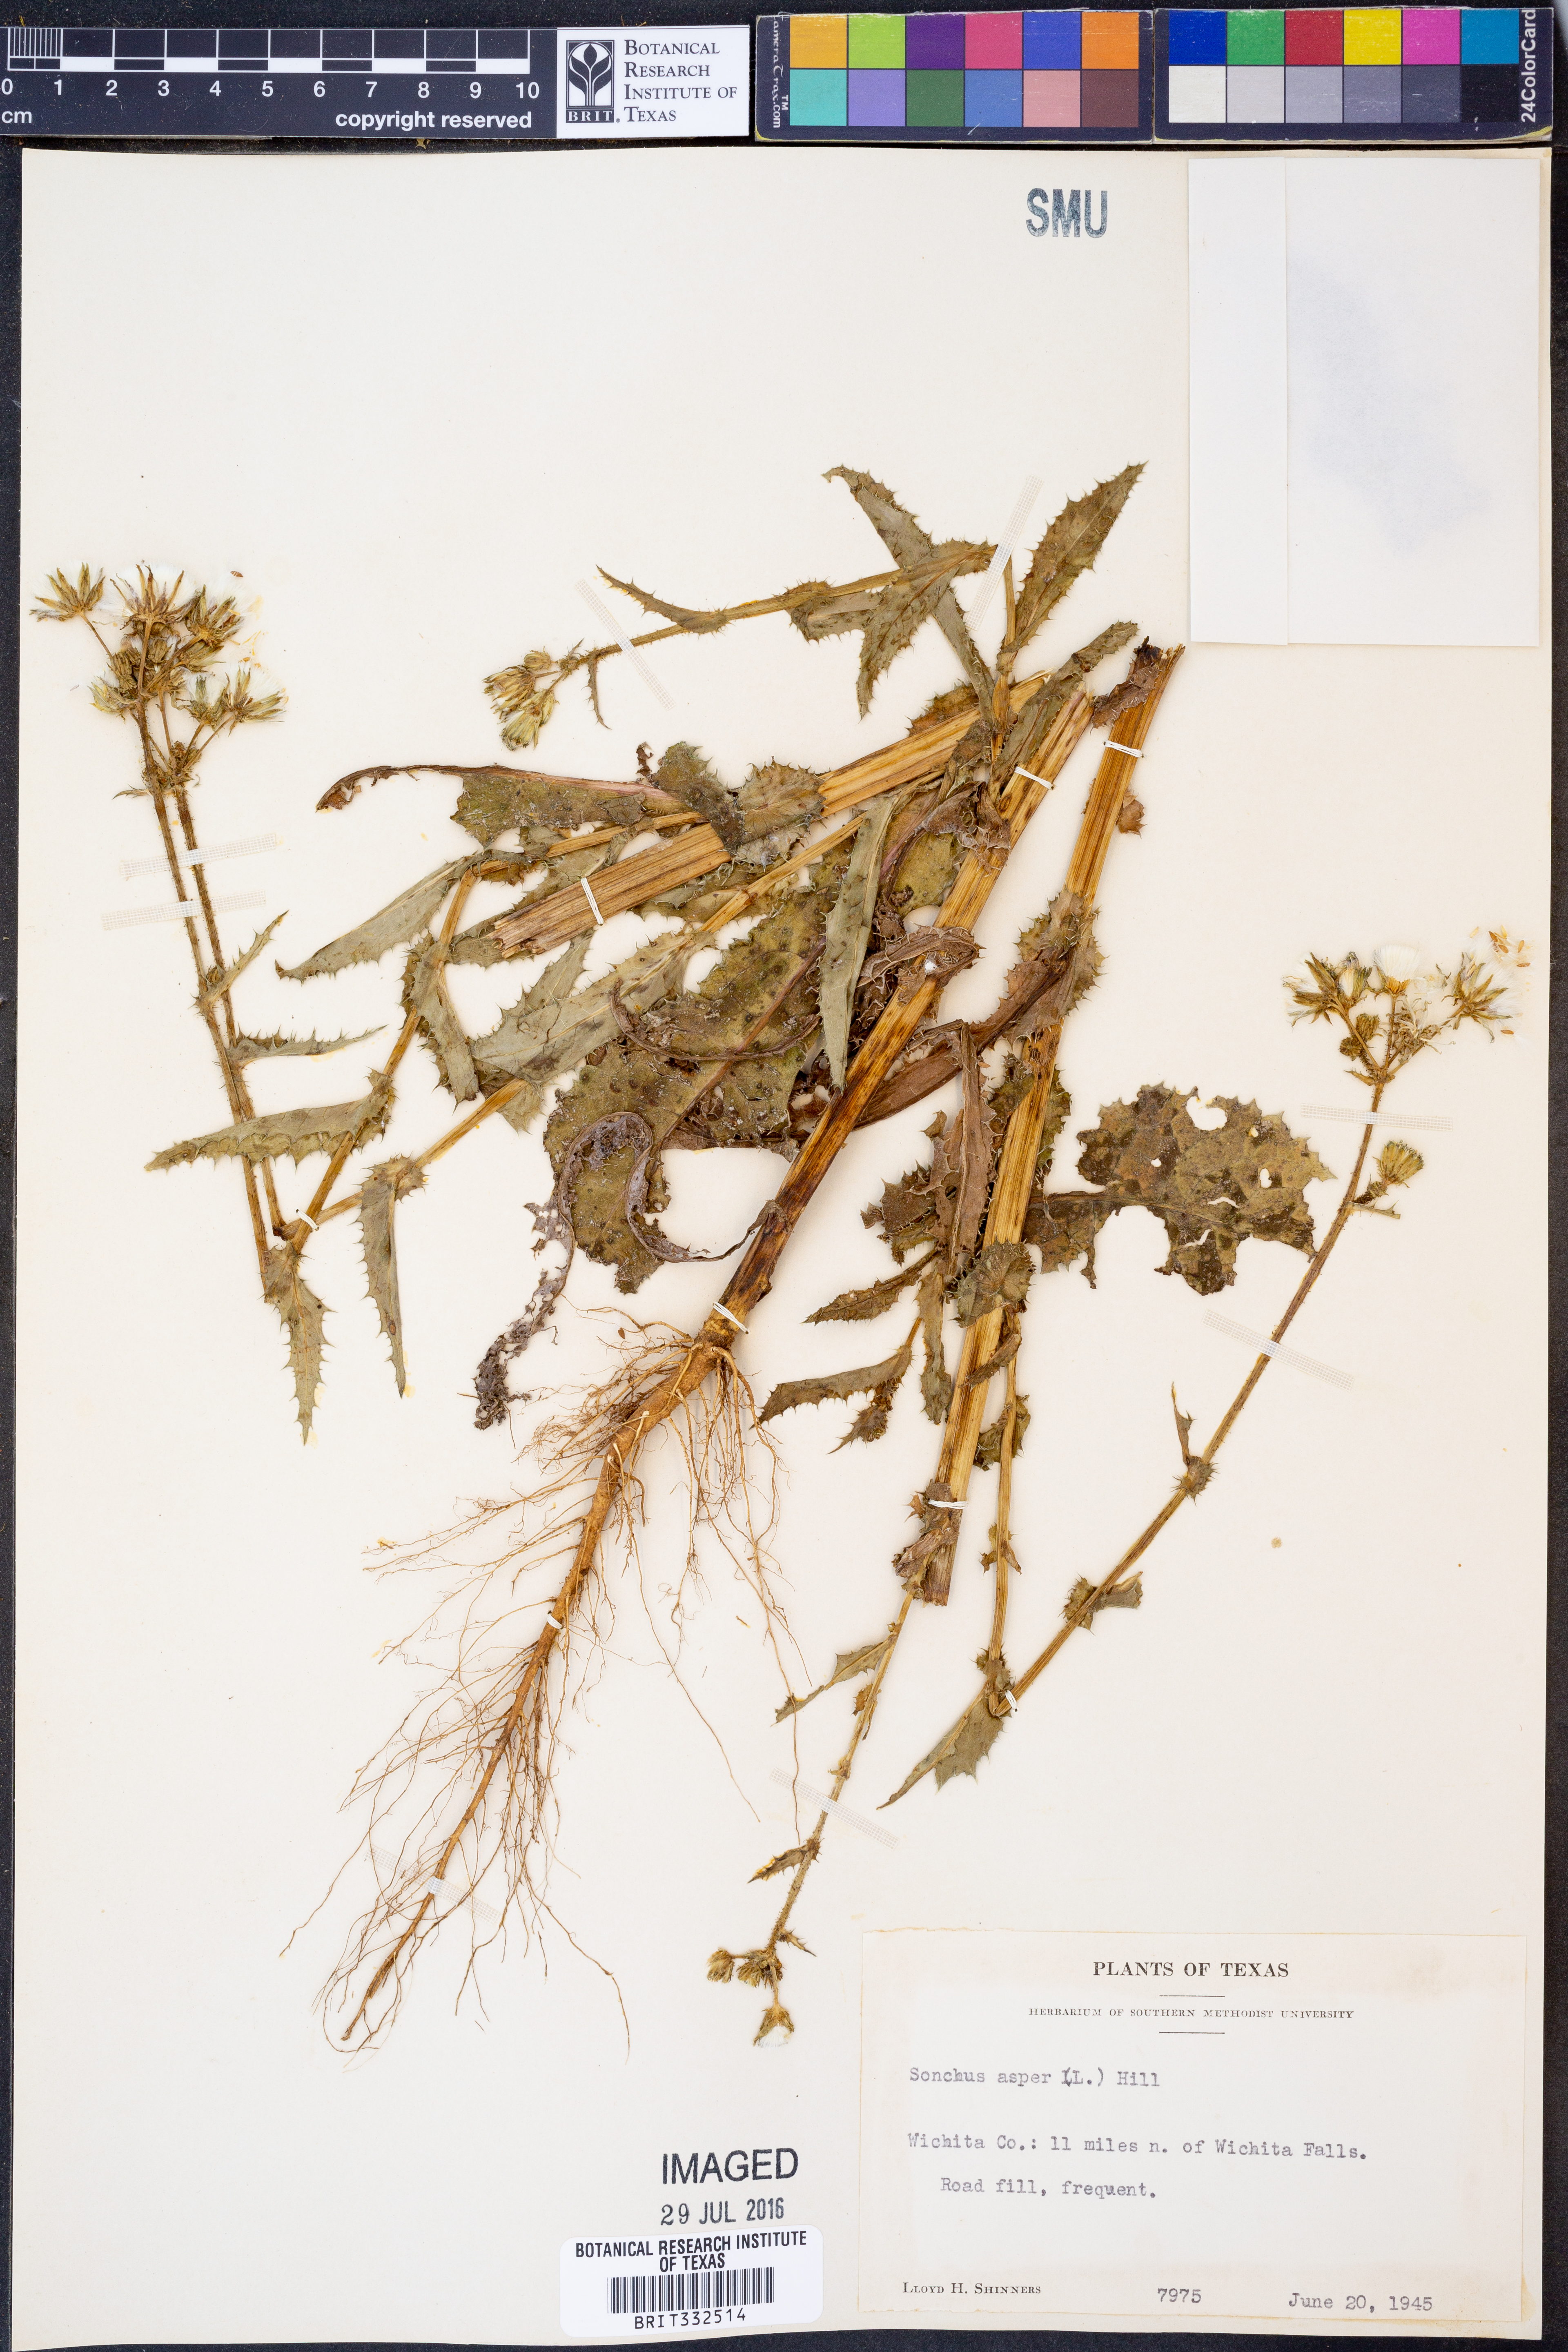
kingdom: Plantae
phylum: Tracheophyta
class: Magnoliopsida
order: Asterales
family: Asteraceae
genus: Sonchus
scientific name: Sonchus asper
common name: Prickly sow-thistle
